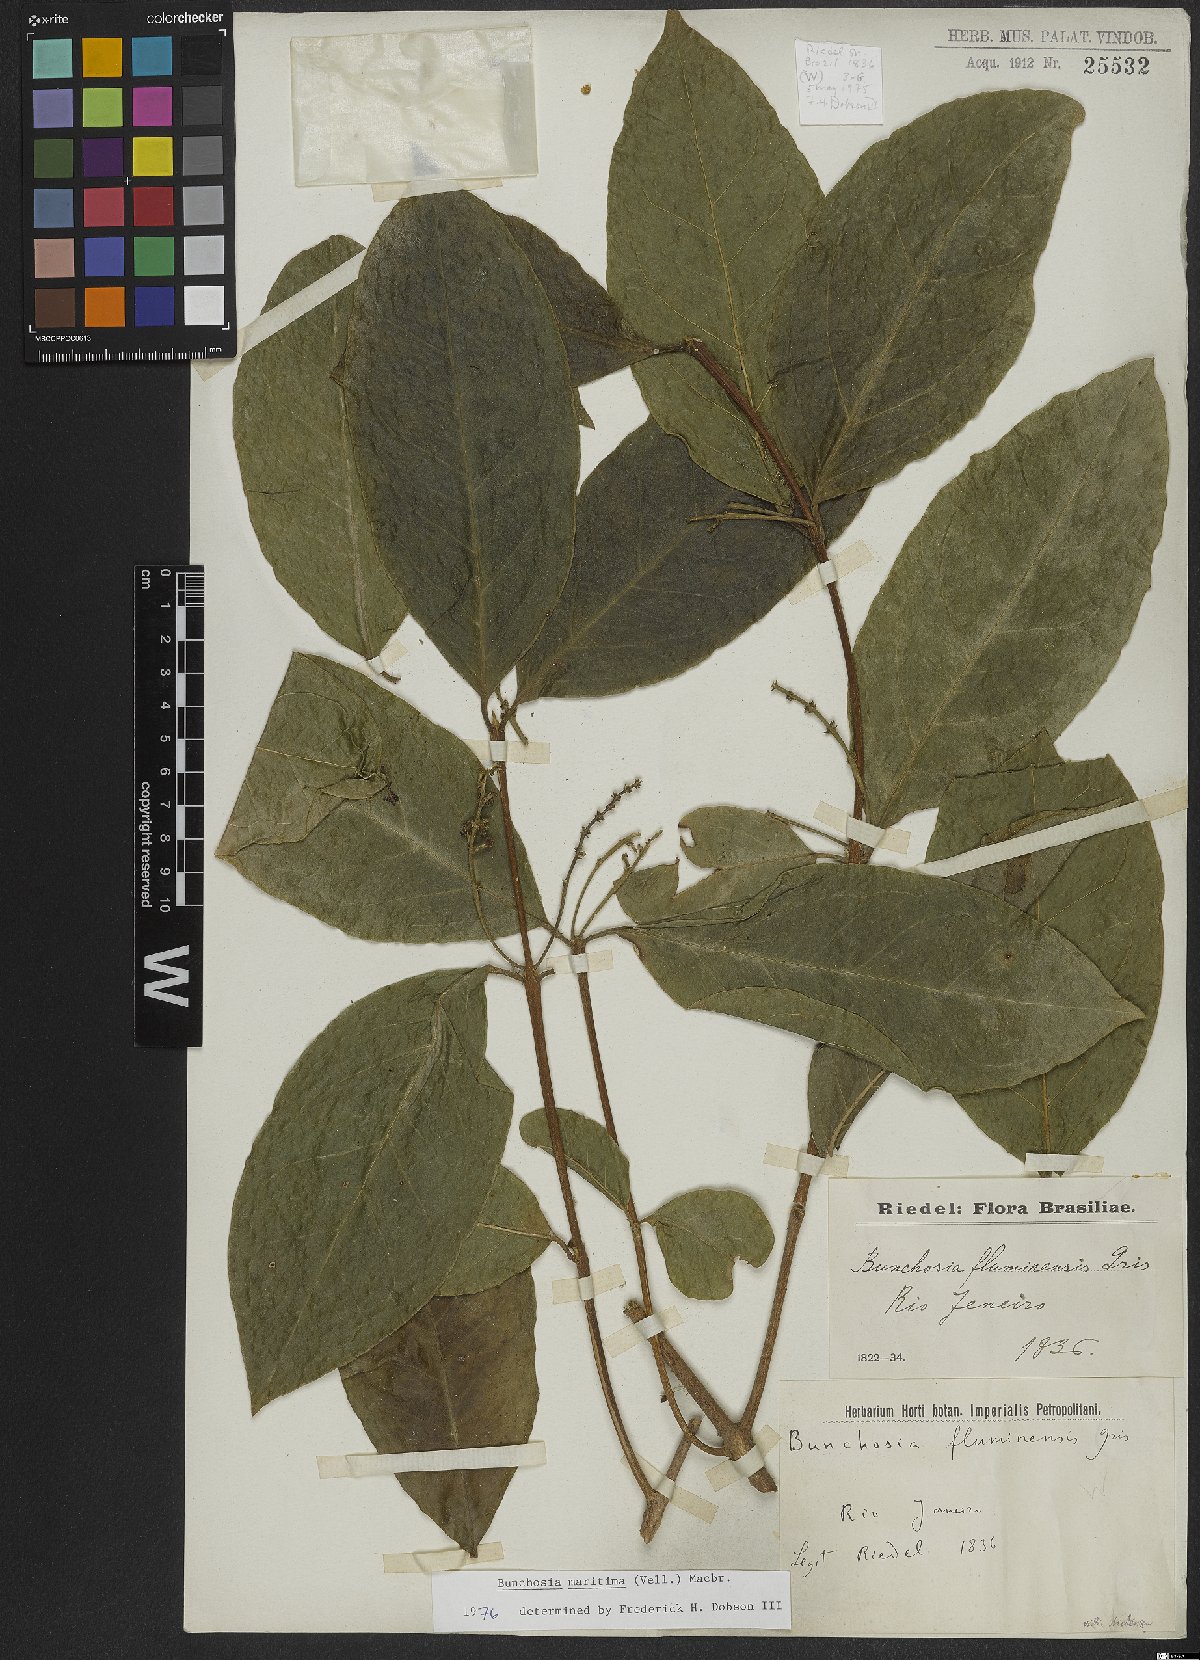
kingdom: Plantae
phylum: Tracheophyta
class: Magnoliopsida
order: Malpighiales
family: Malpighiaceae
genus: Bunchosia
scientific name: Bunchosia maritima
